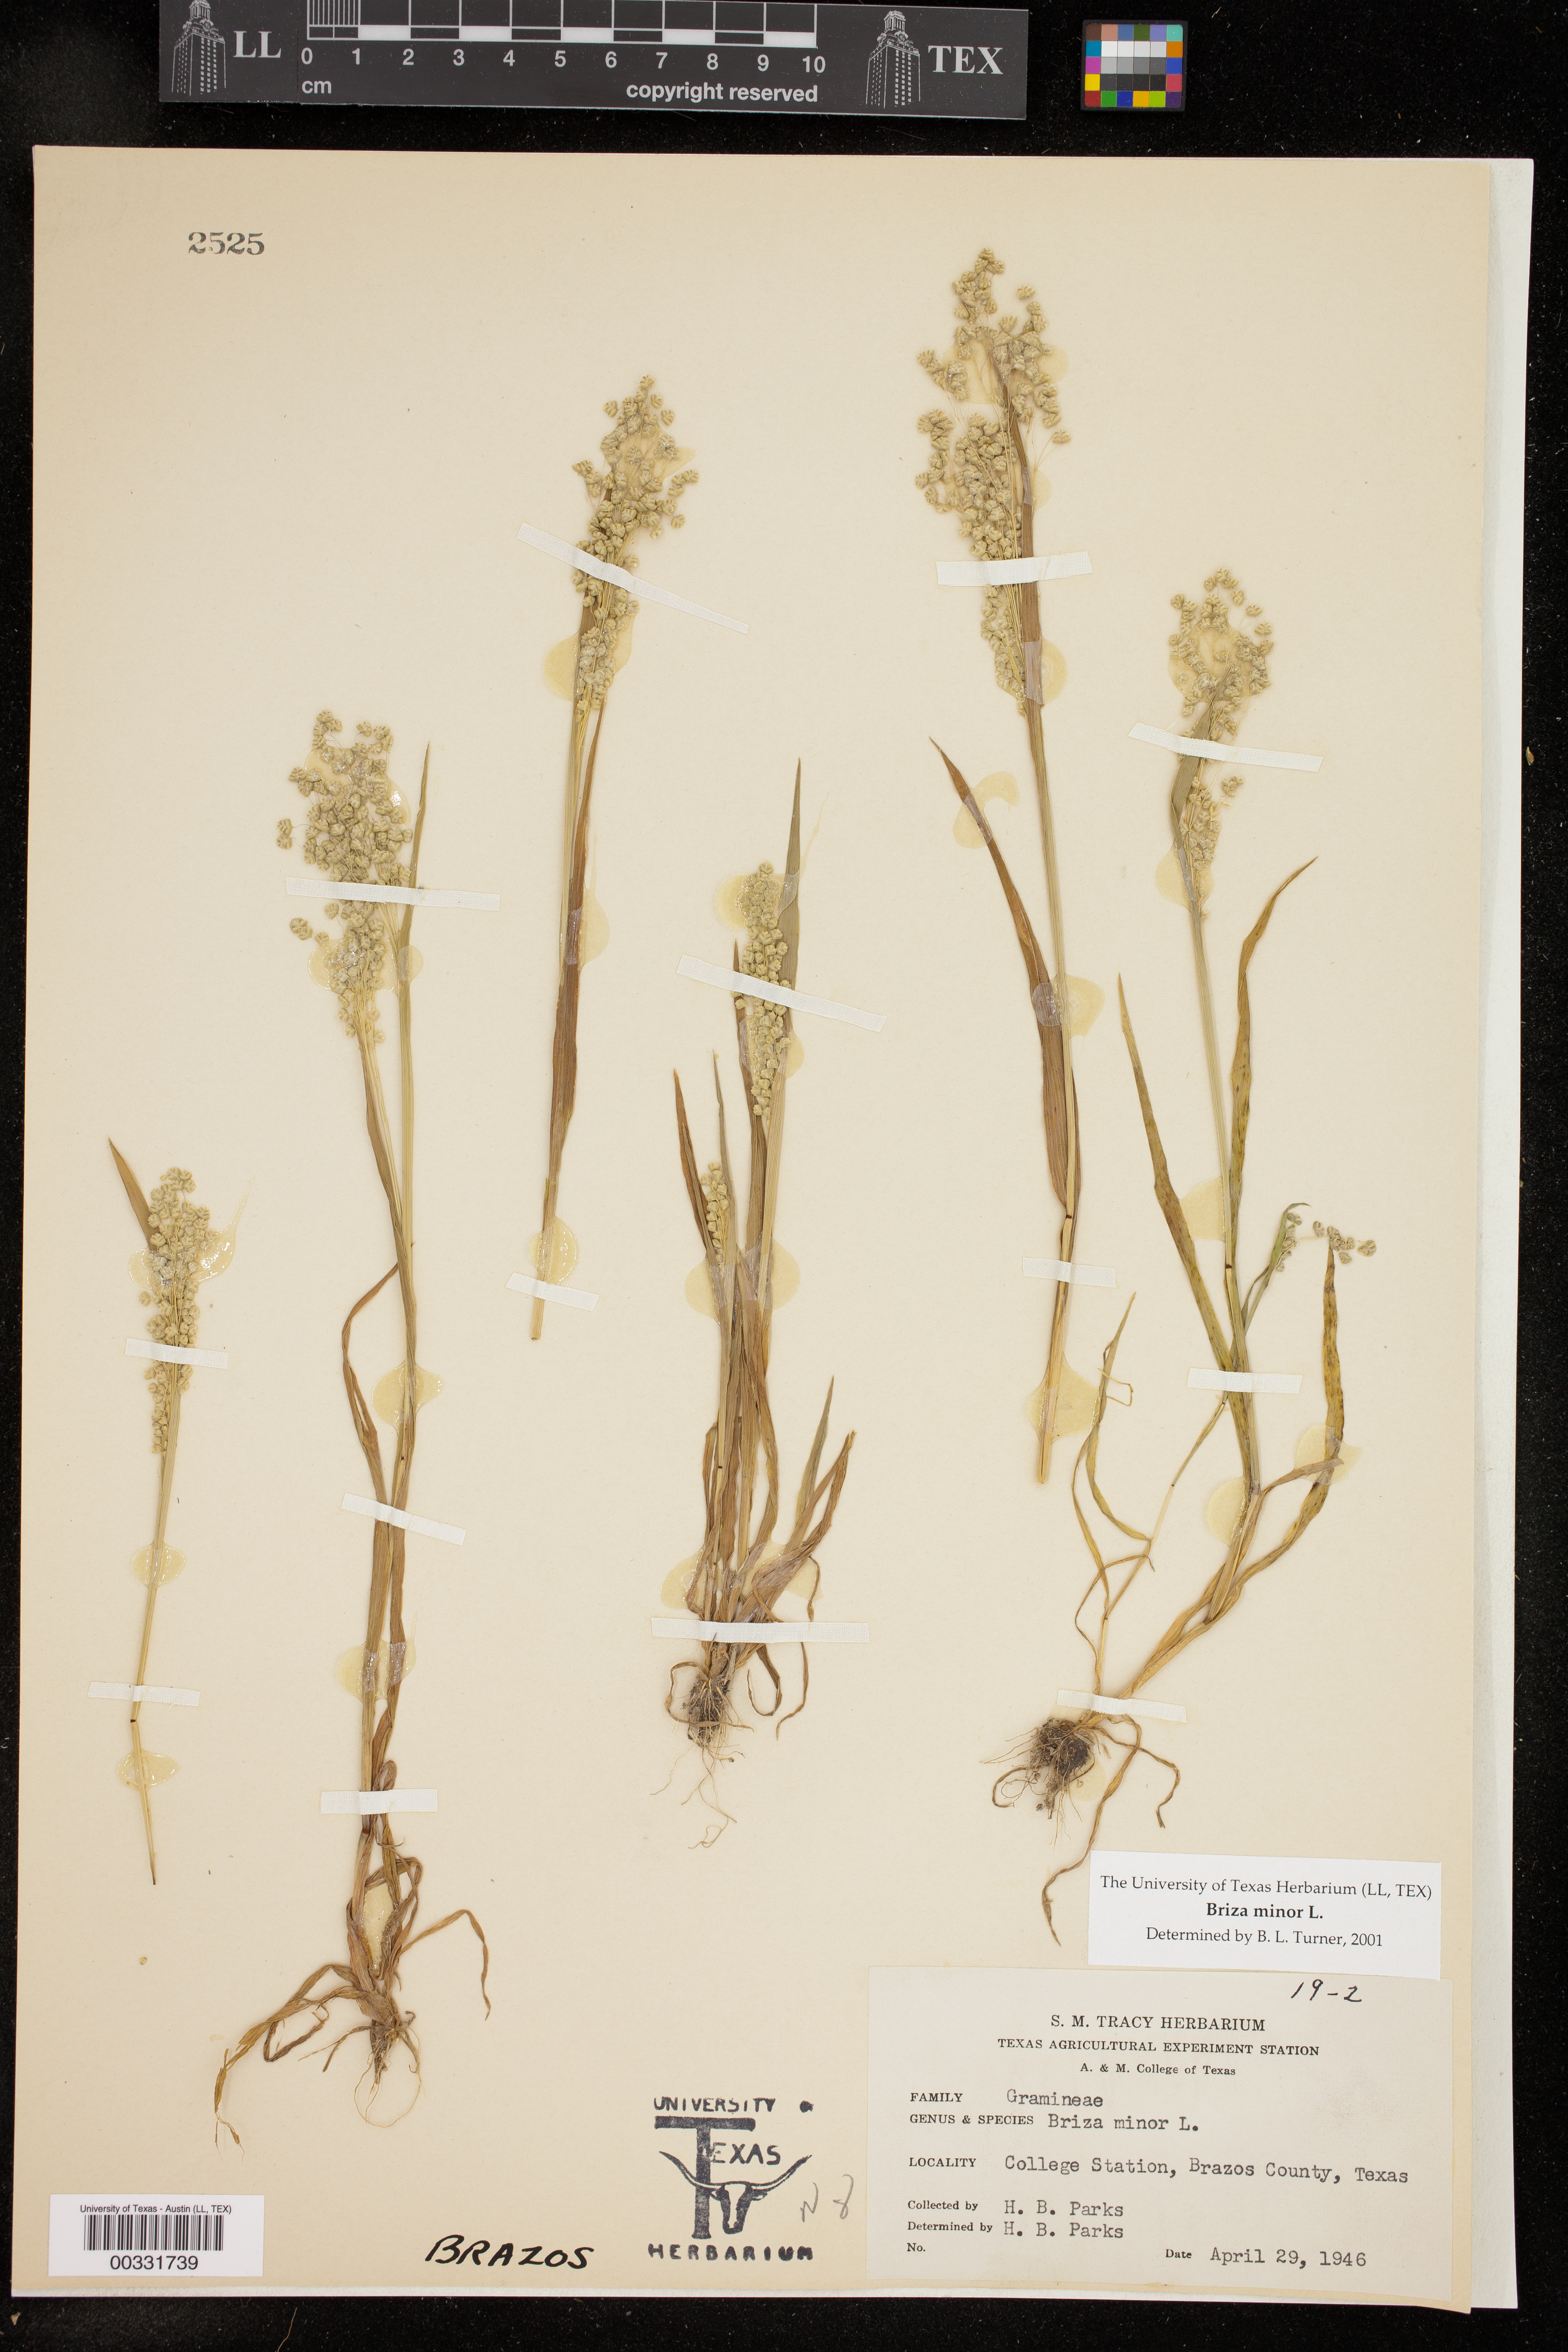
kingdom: Plantae
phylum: Tracheophyta
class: Liliopsida
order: Poales
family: Poaceae
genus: Briza
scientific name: Briza minor
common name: Lesser quaking-grass
